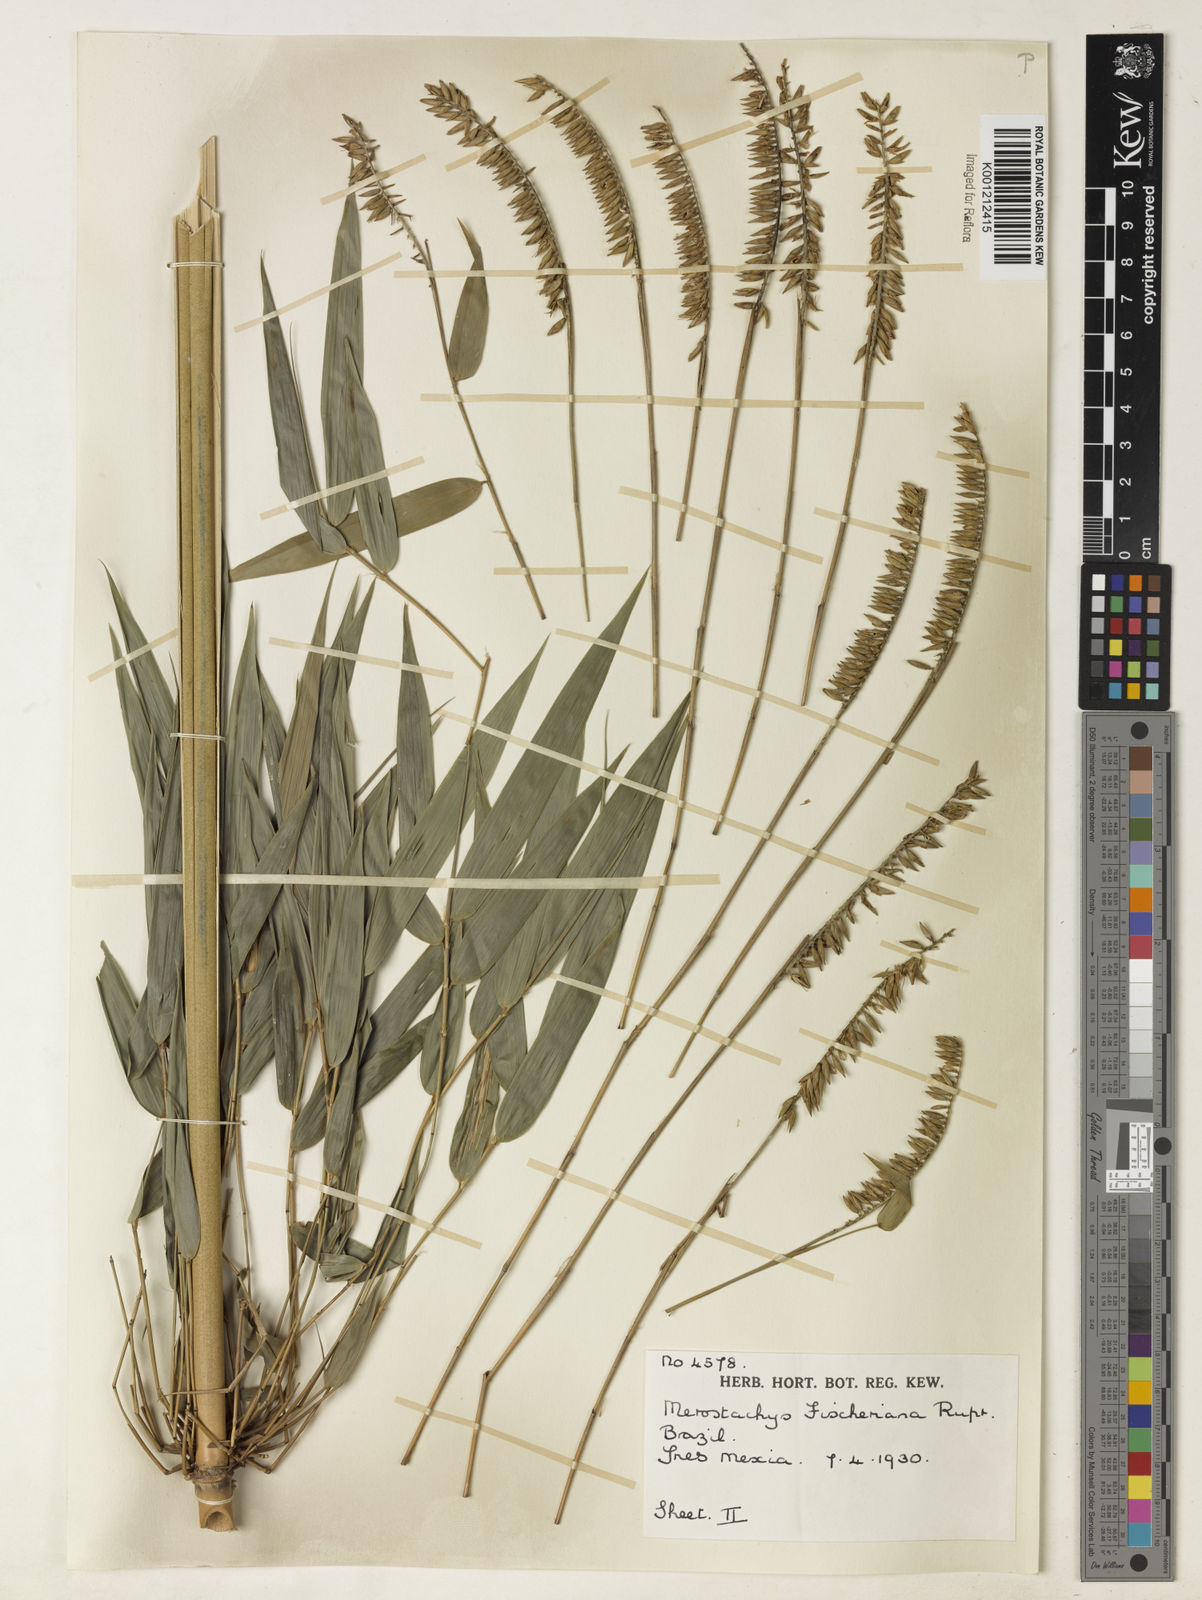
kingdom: Plantae
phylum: Tracheophyta
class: Liliopsida
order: Poales
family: Poaceae
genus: Merostachys
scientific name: Merostachys
